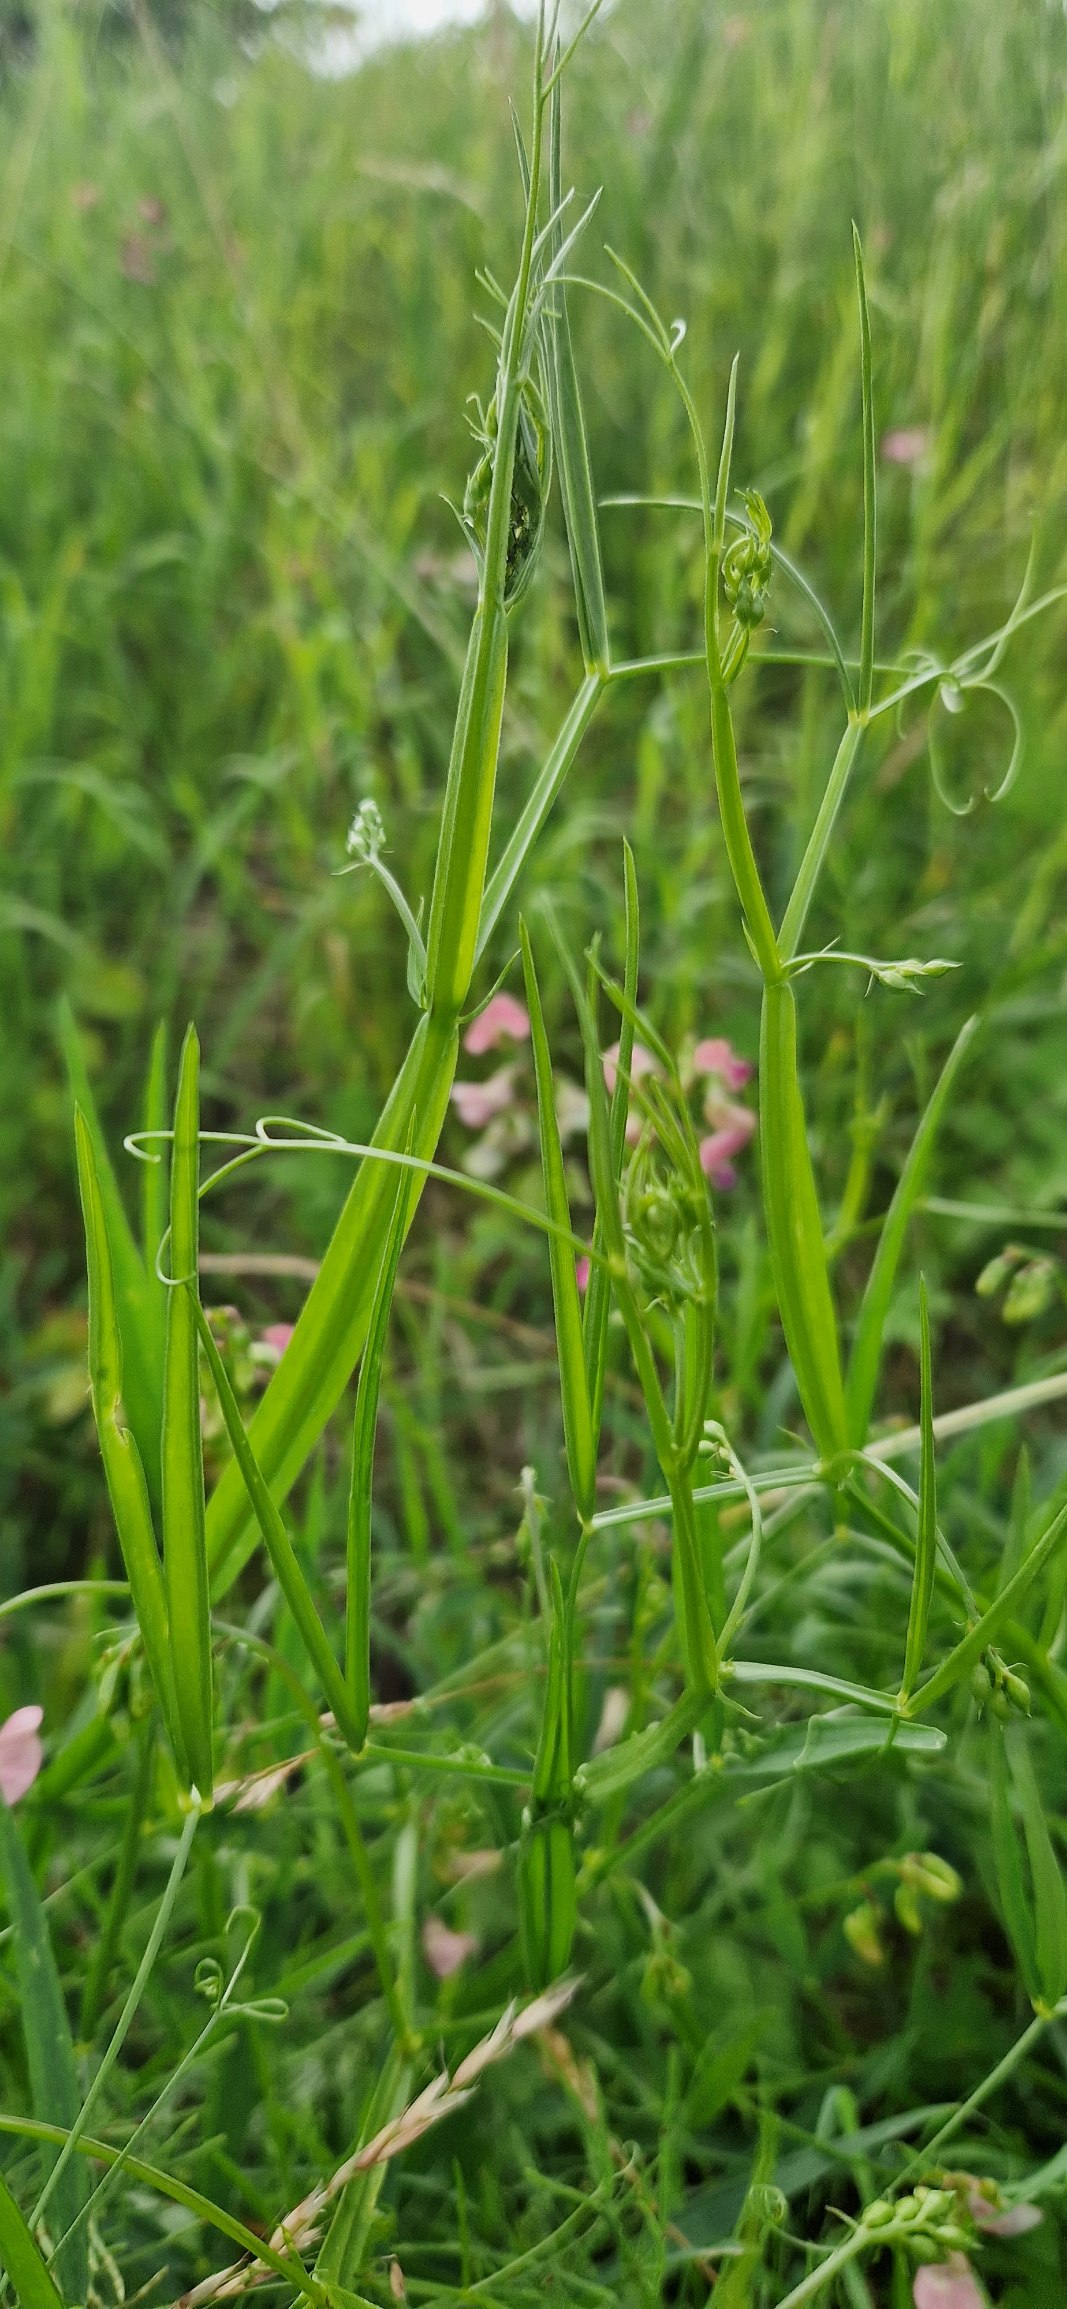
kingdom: Plantae
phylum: Tracheophyta
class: Magnoliopsida
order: Fabales
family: Fabaceae
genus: Lathyrus
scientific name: Lathyrus sylvestris
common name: Skov-fladbælg
